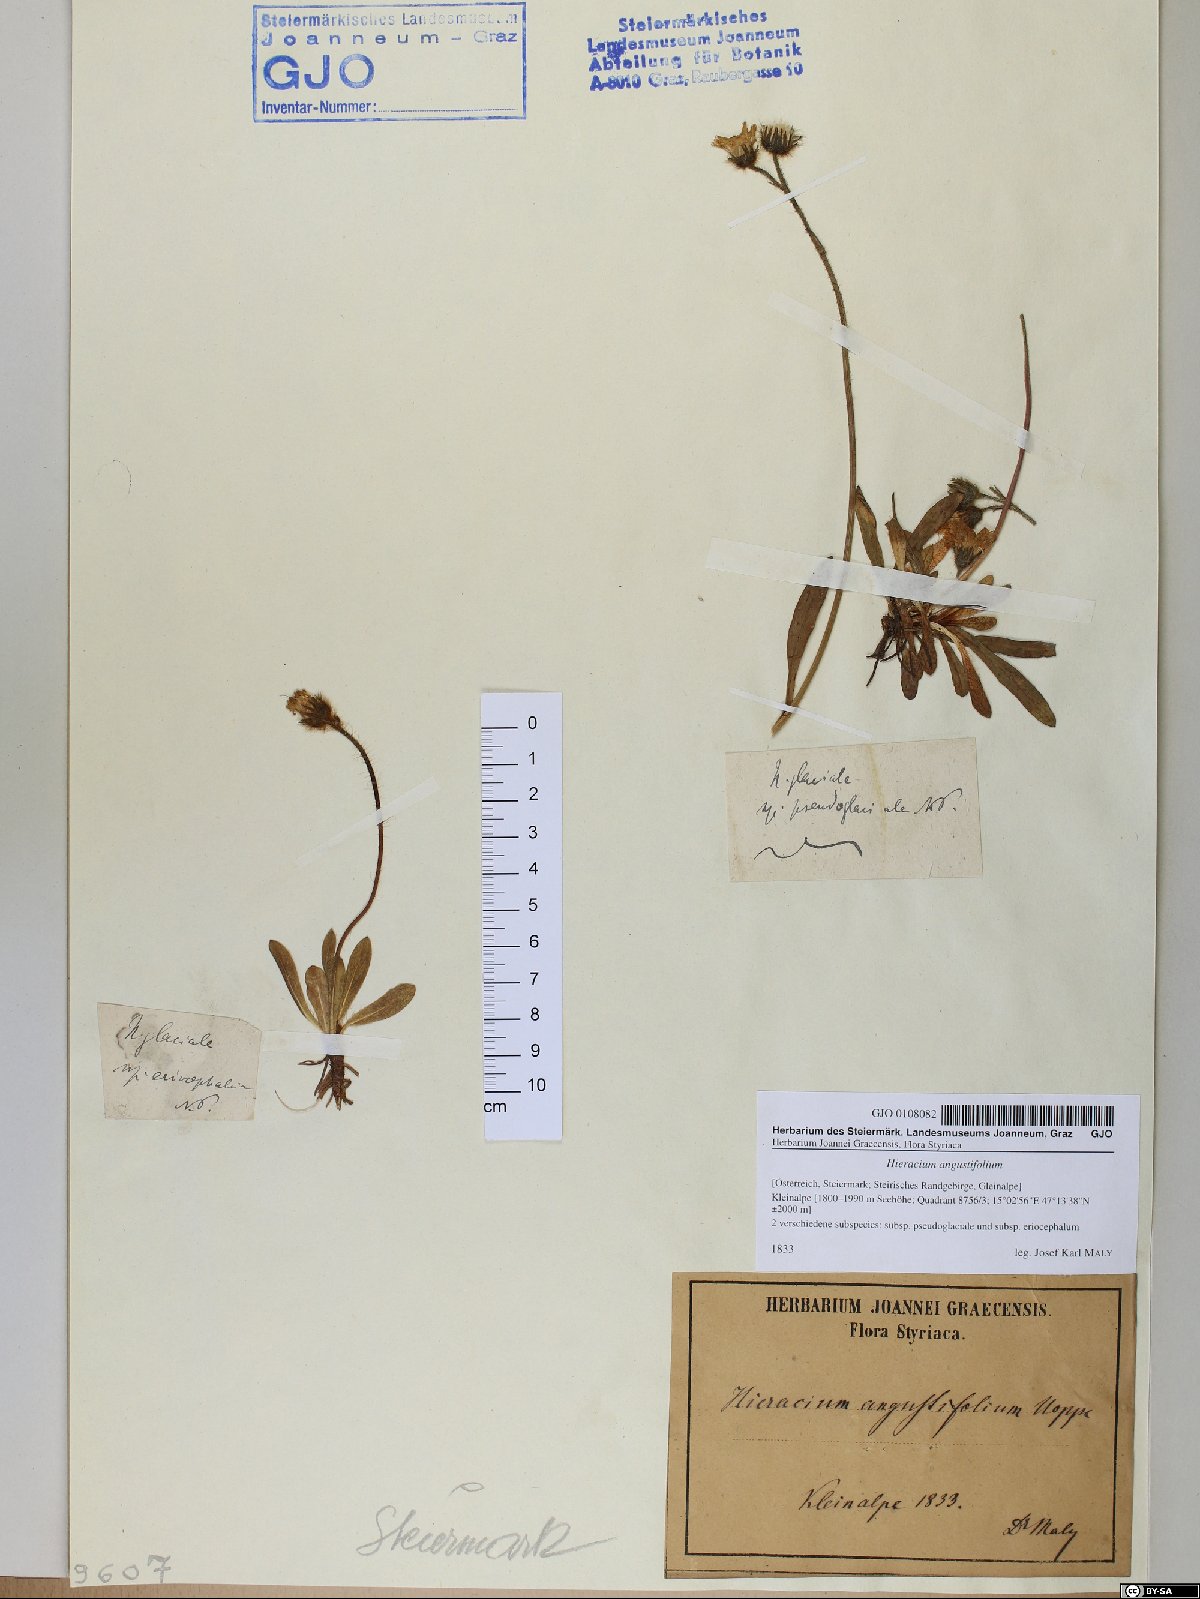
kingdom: Plantae
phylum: Tracheophyta
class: Magnoliopsida
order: Asterales
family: Asteraceae
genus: Pilosella
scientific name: Pilosella glacialis
